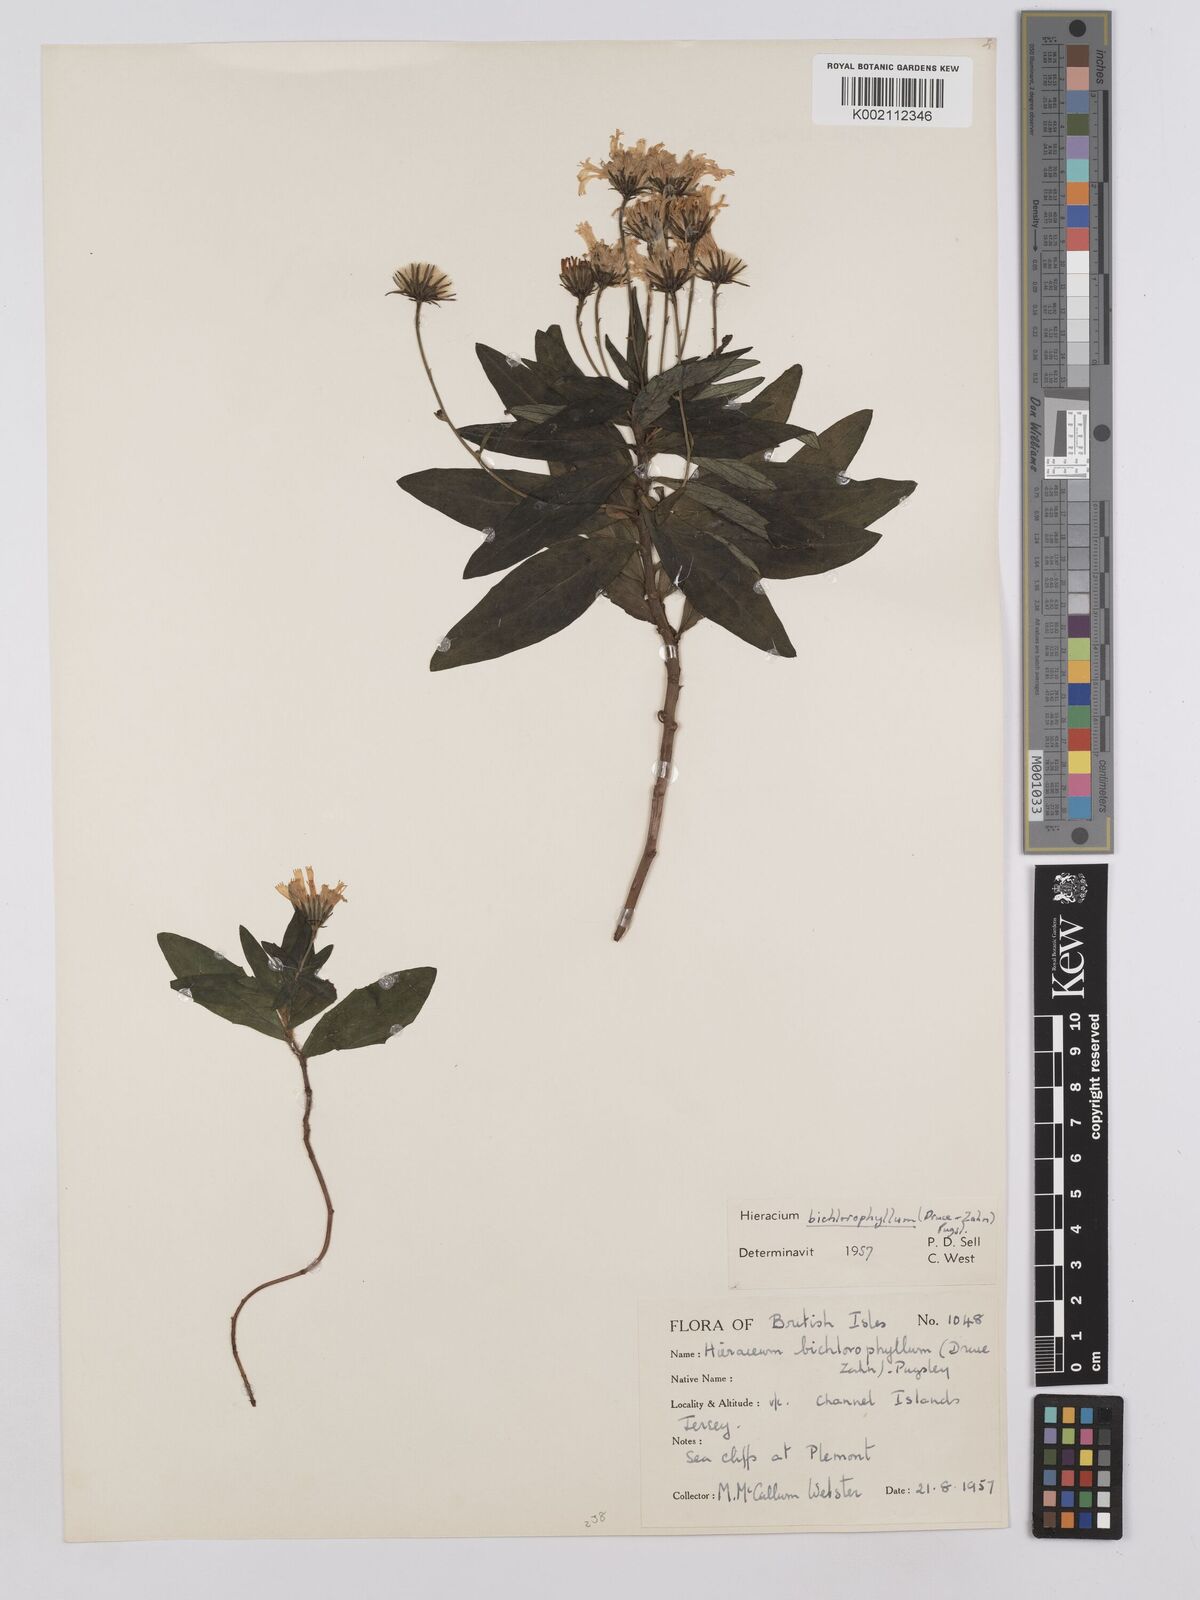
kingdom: Plantae
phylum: Tracheophyta
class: Magnoliopsida
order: Asterales
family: Asteraceae
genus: Hieracium
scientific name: Hieracium umbellatum
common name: Northern hawkweed
